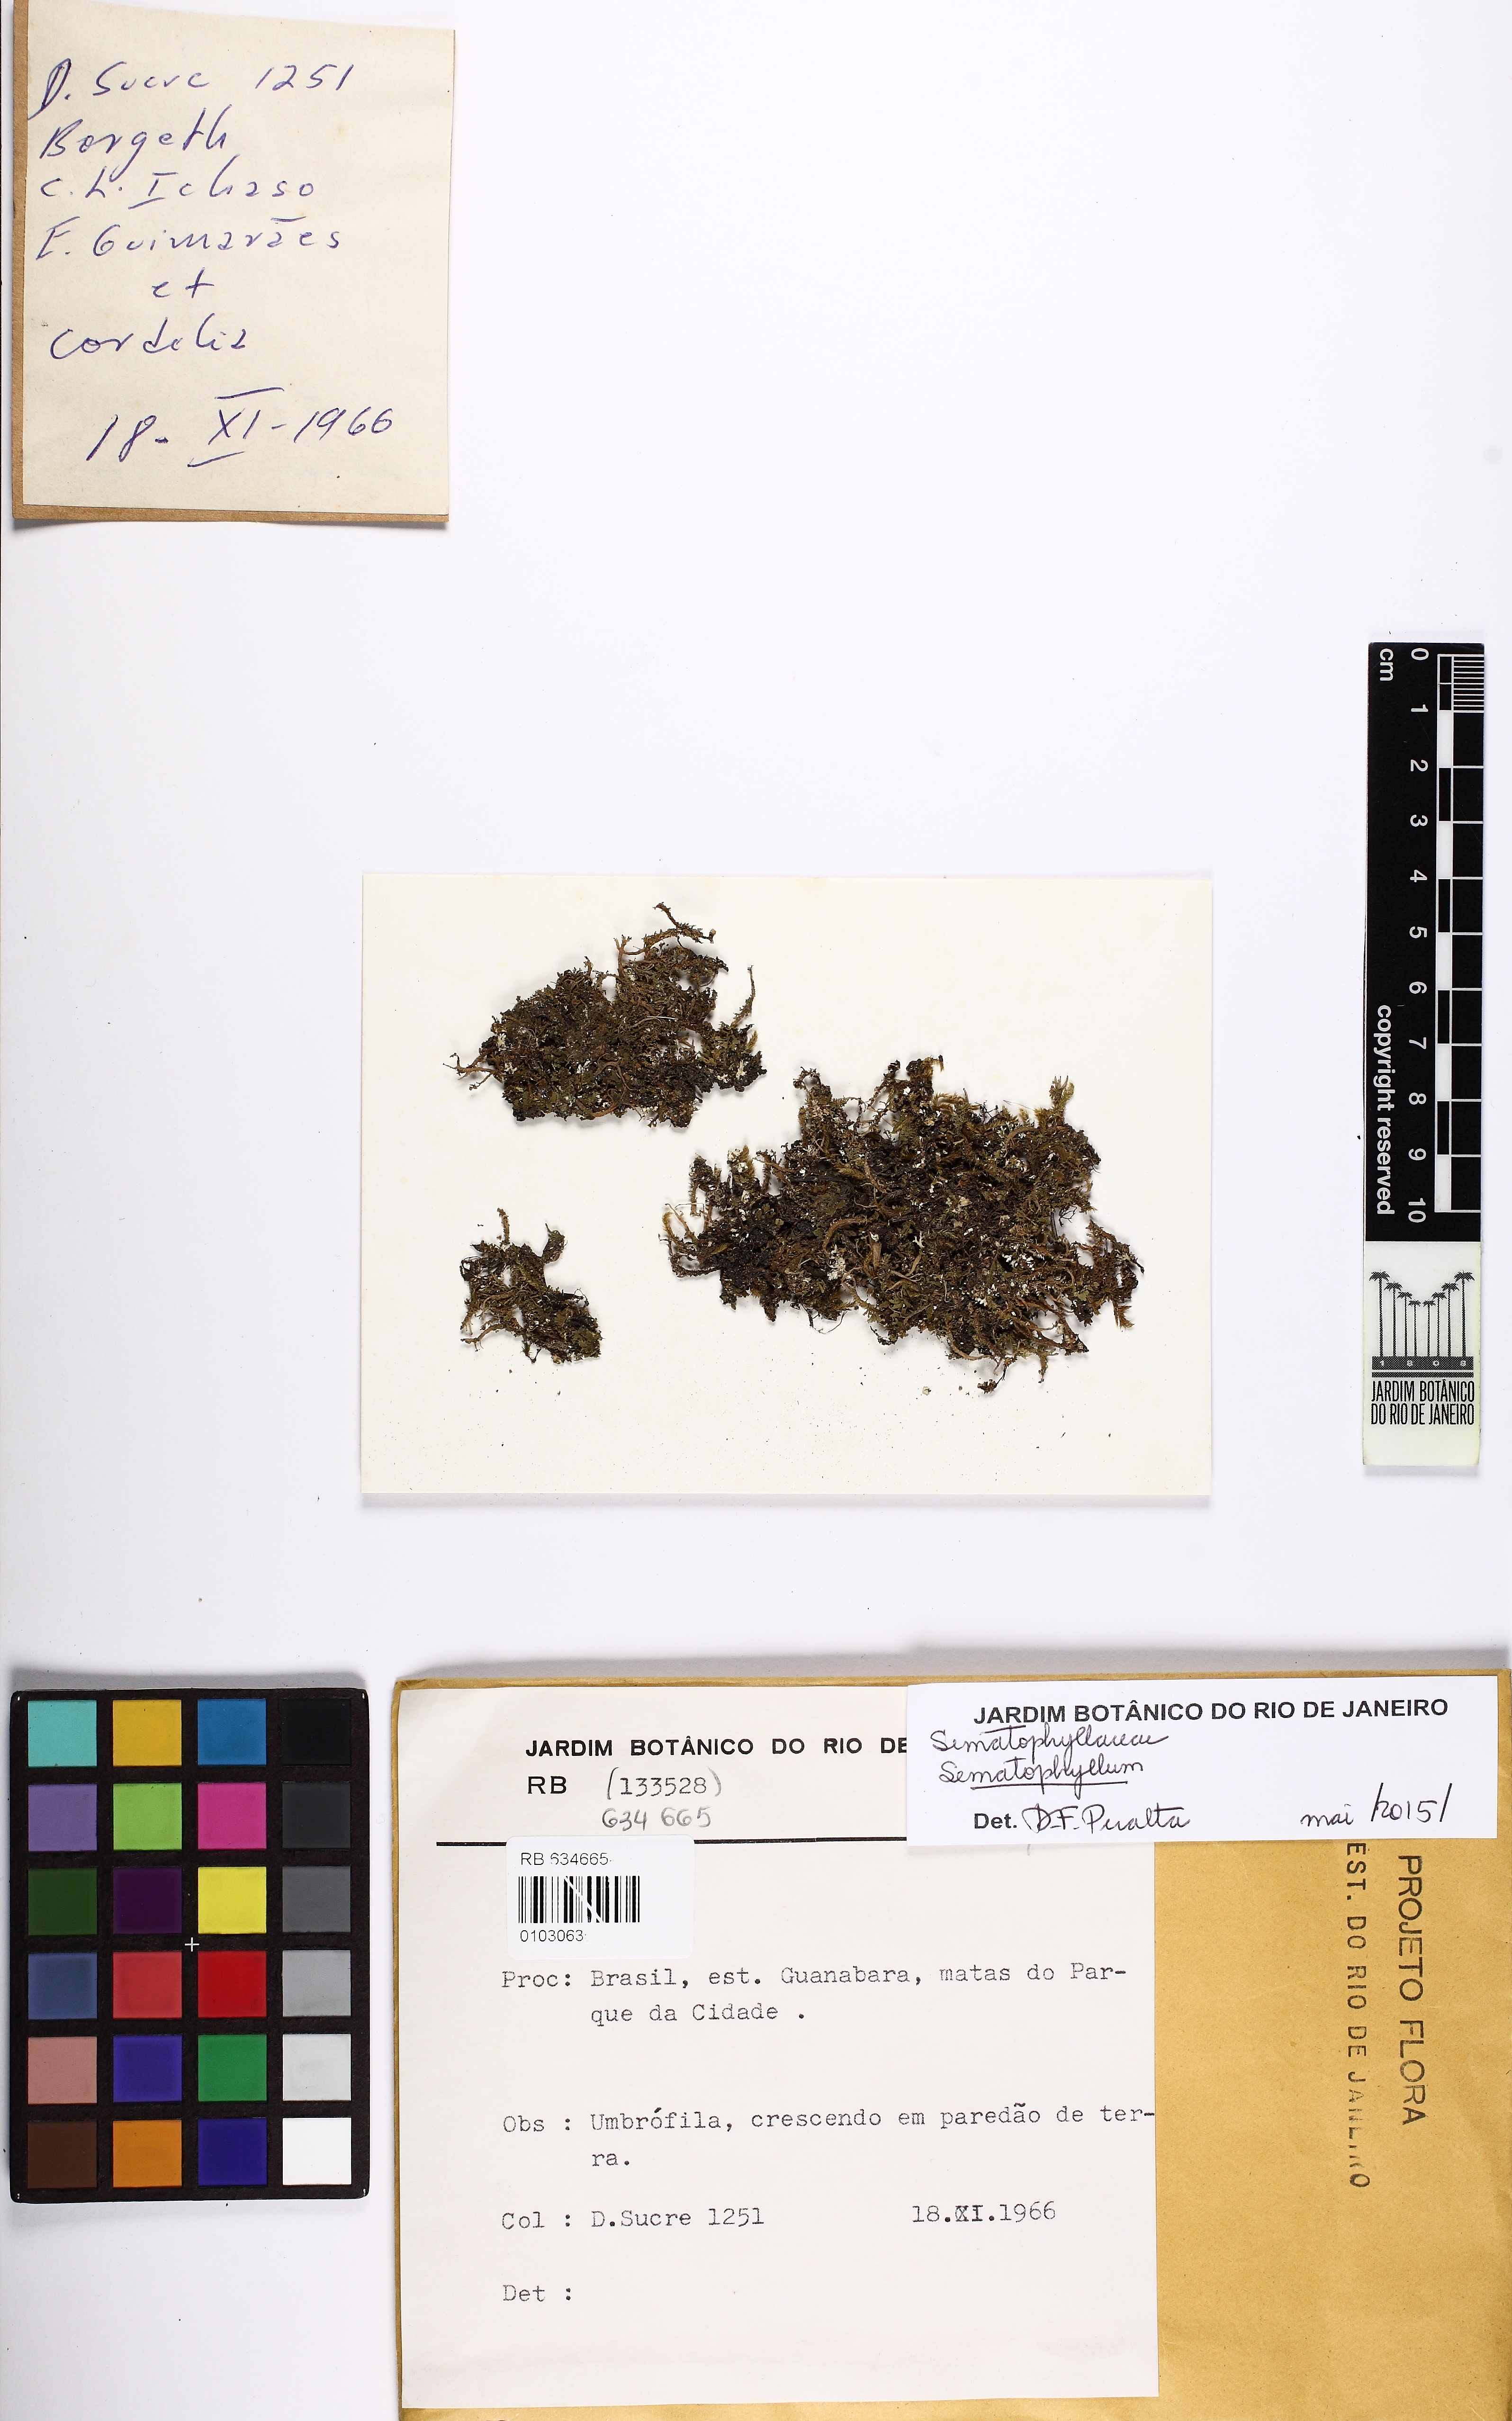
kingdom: Plantae
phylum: Bryophyta
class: Bryopsida
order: Hypnales
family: Sematophyllaceae
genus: Sematophyllum
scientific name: Sematophyllum
